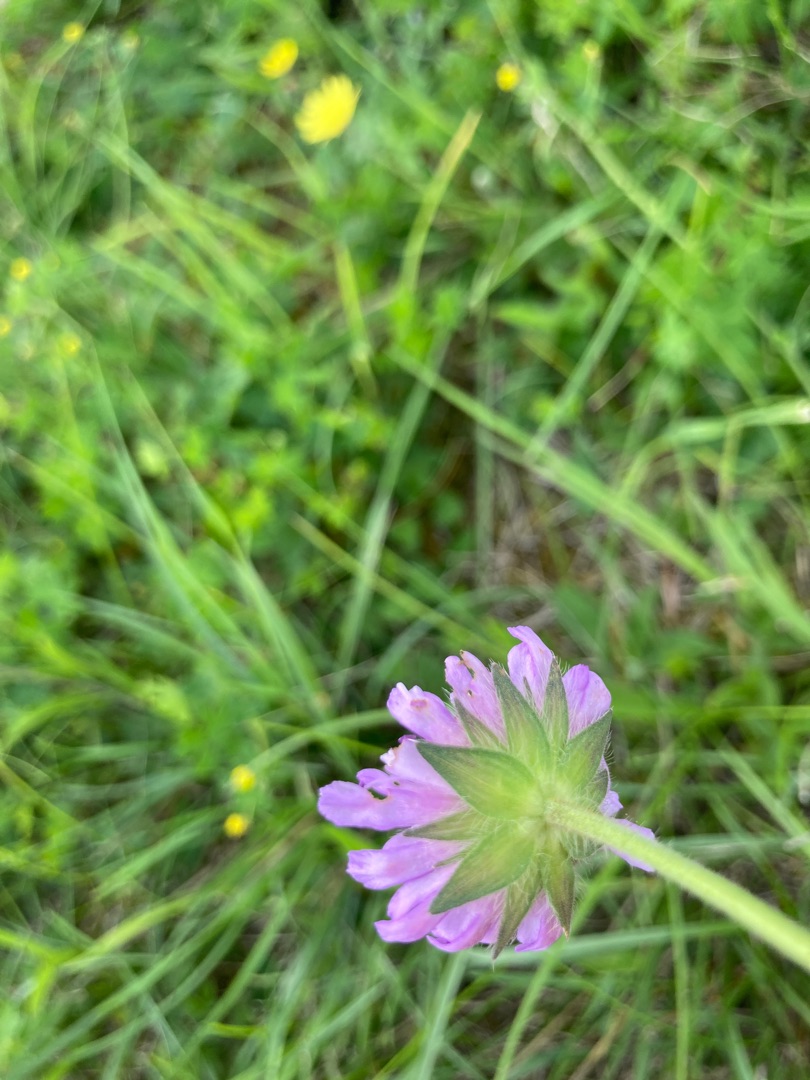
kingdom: Plantae
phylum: Tracheophyta
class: Magnoliopsida
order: Dipsacales
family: Caprifoliaceae
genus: Knautia
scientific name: Knautia arvensis
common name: Blåhat
